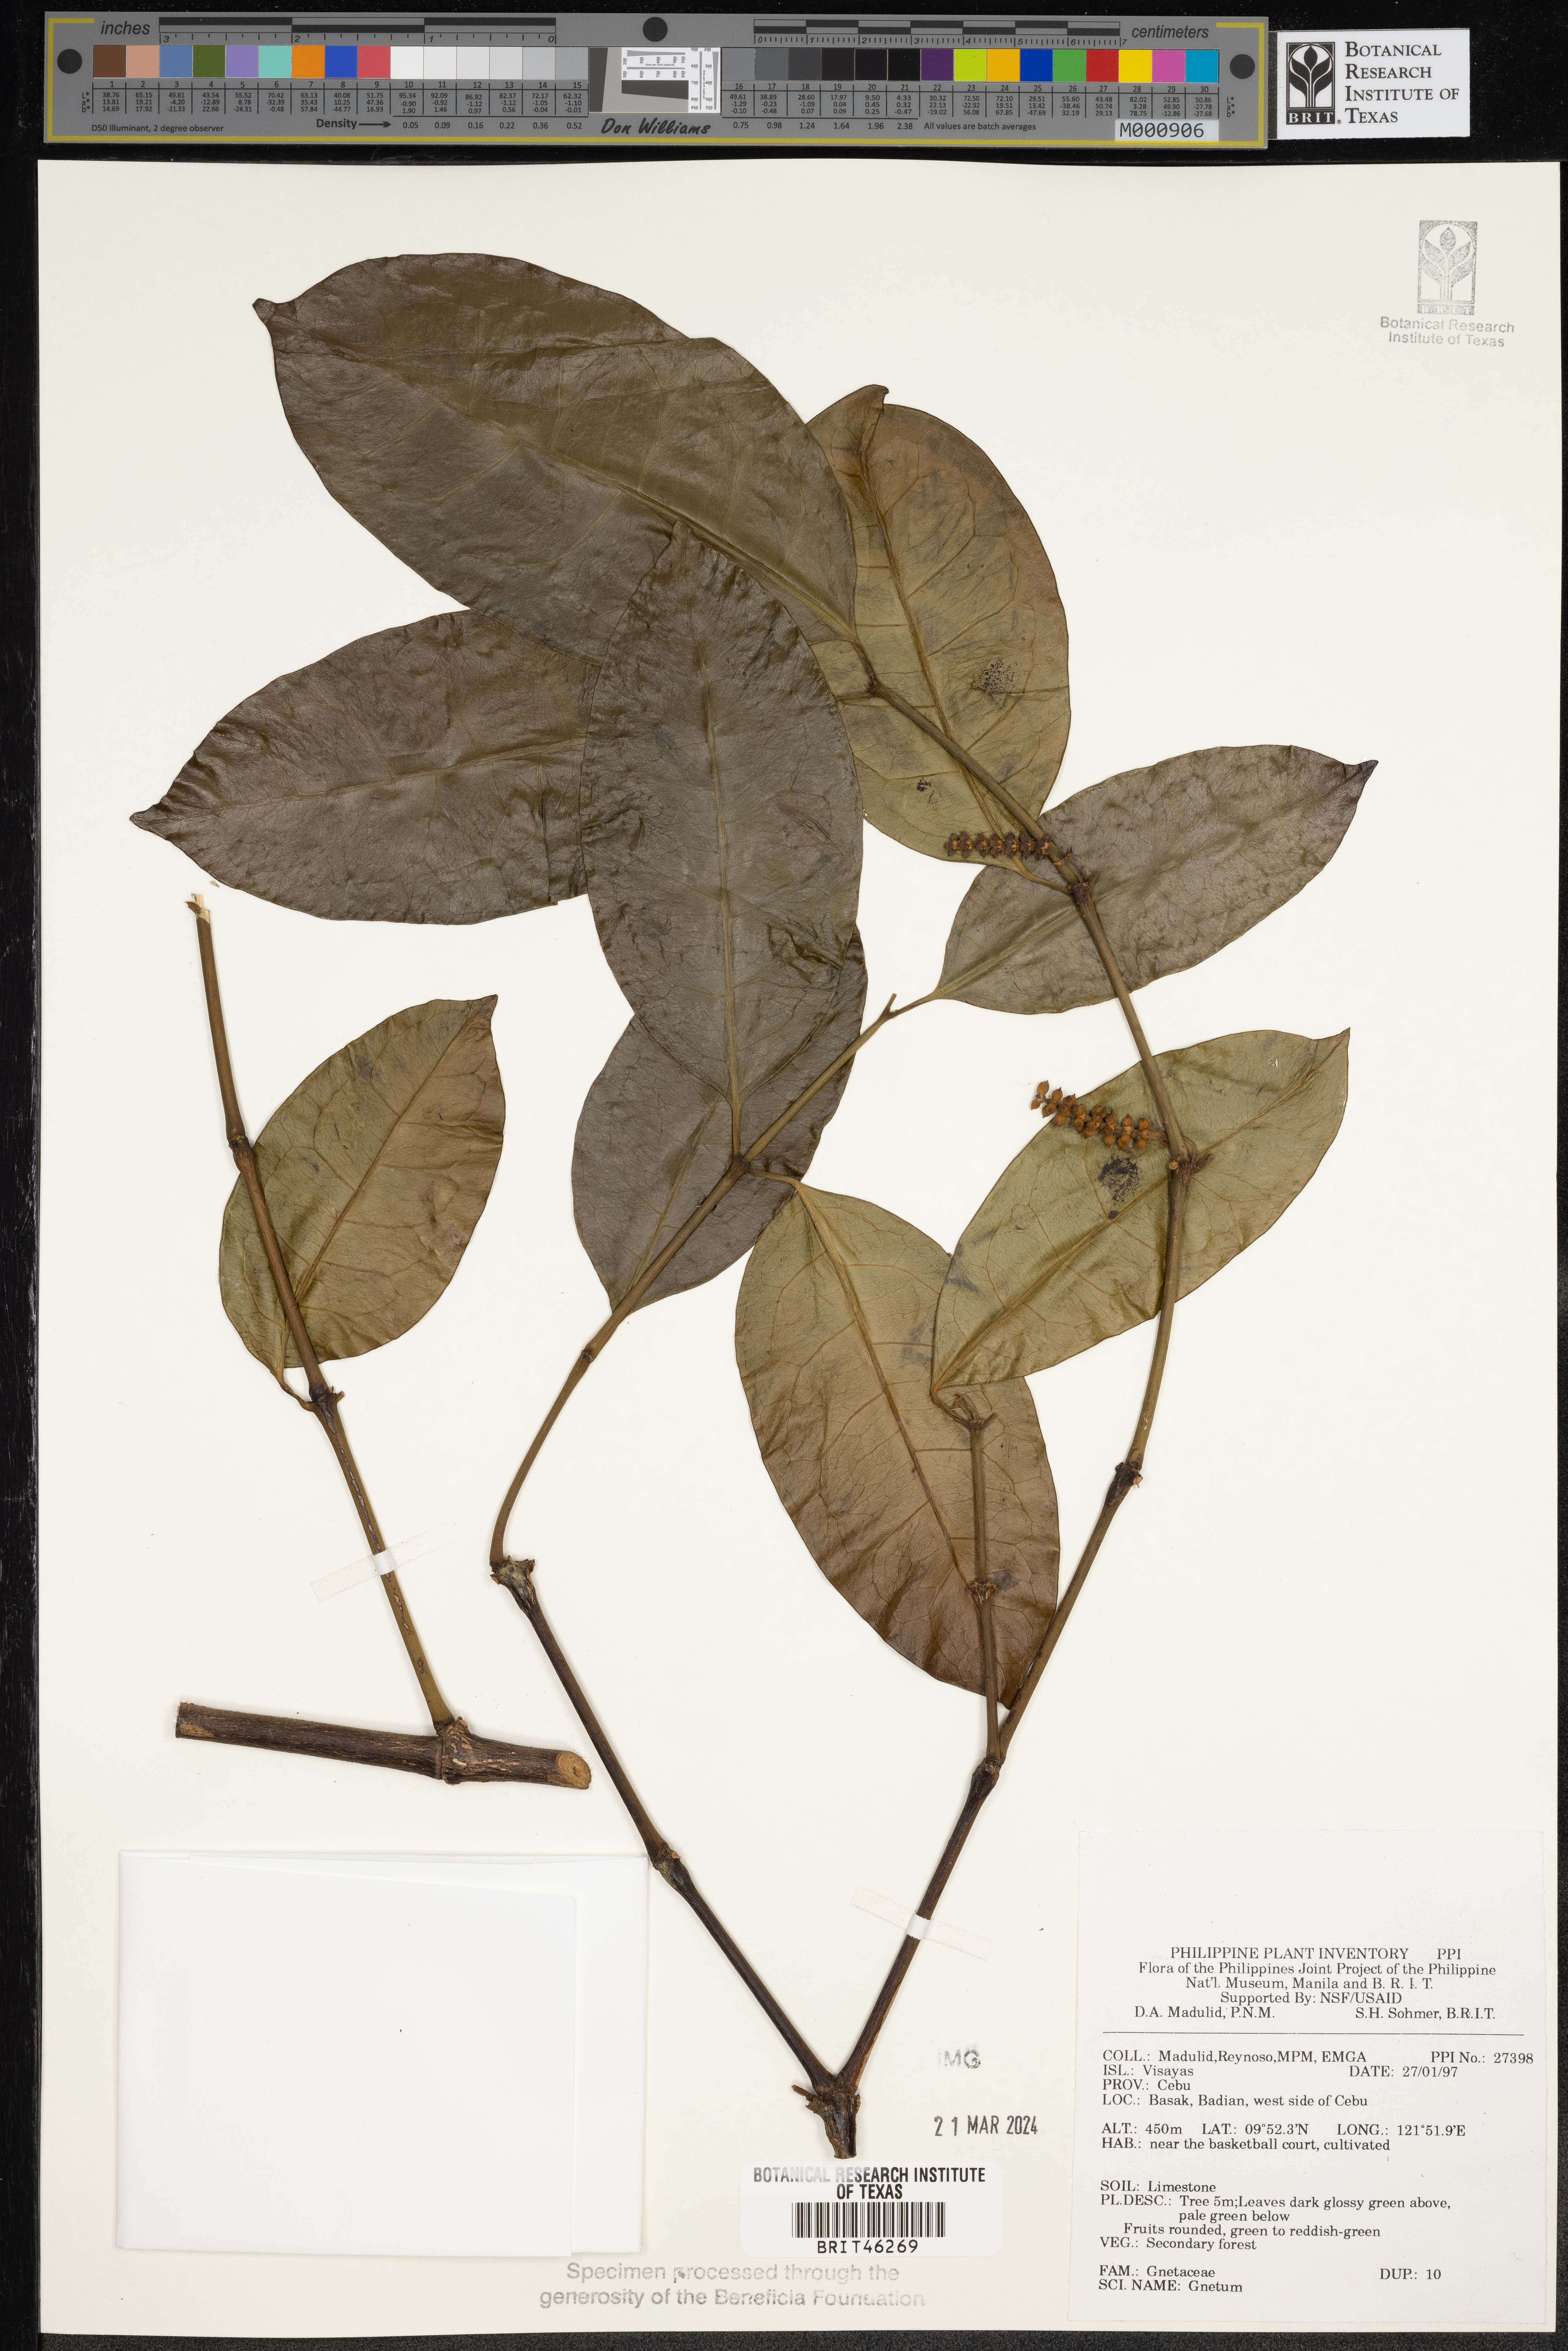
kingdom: Plantae
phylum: Tracheophyta
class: Gnetopsida
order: Gnetales
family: Gnetaceae
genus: Gnetum
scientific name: Gnetum
